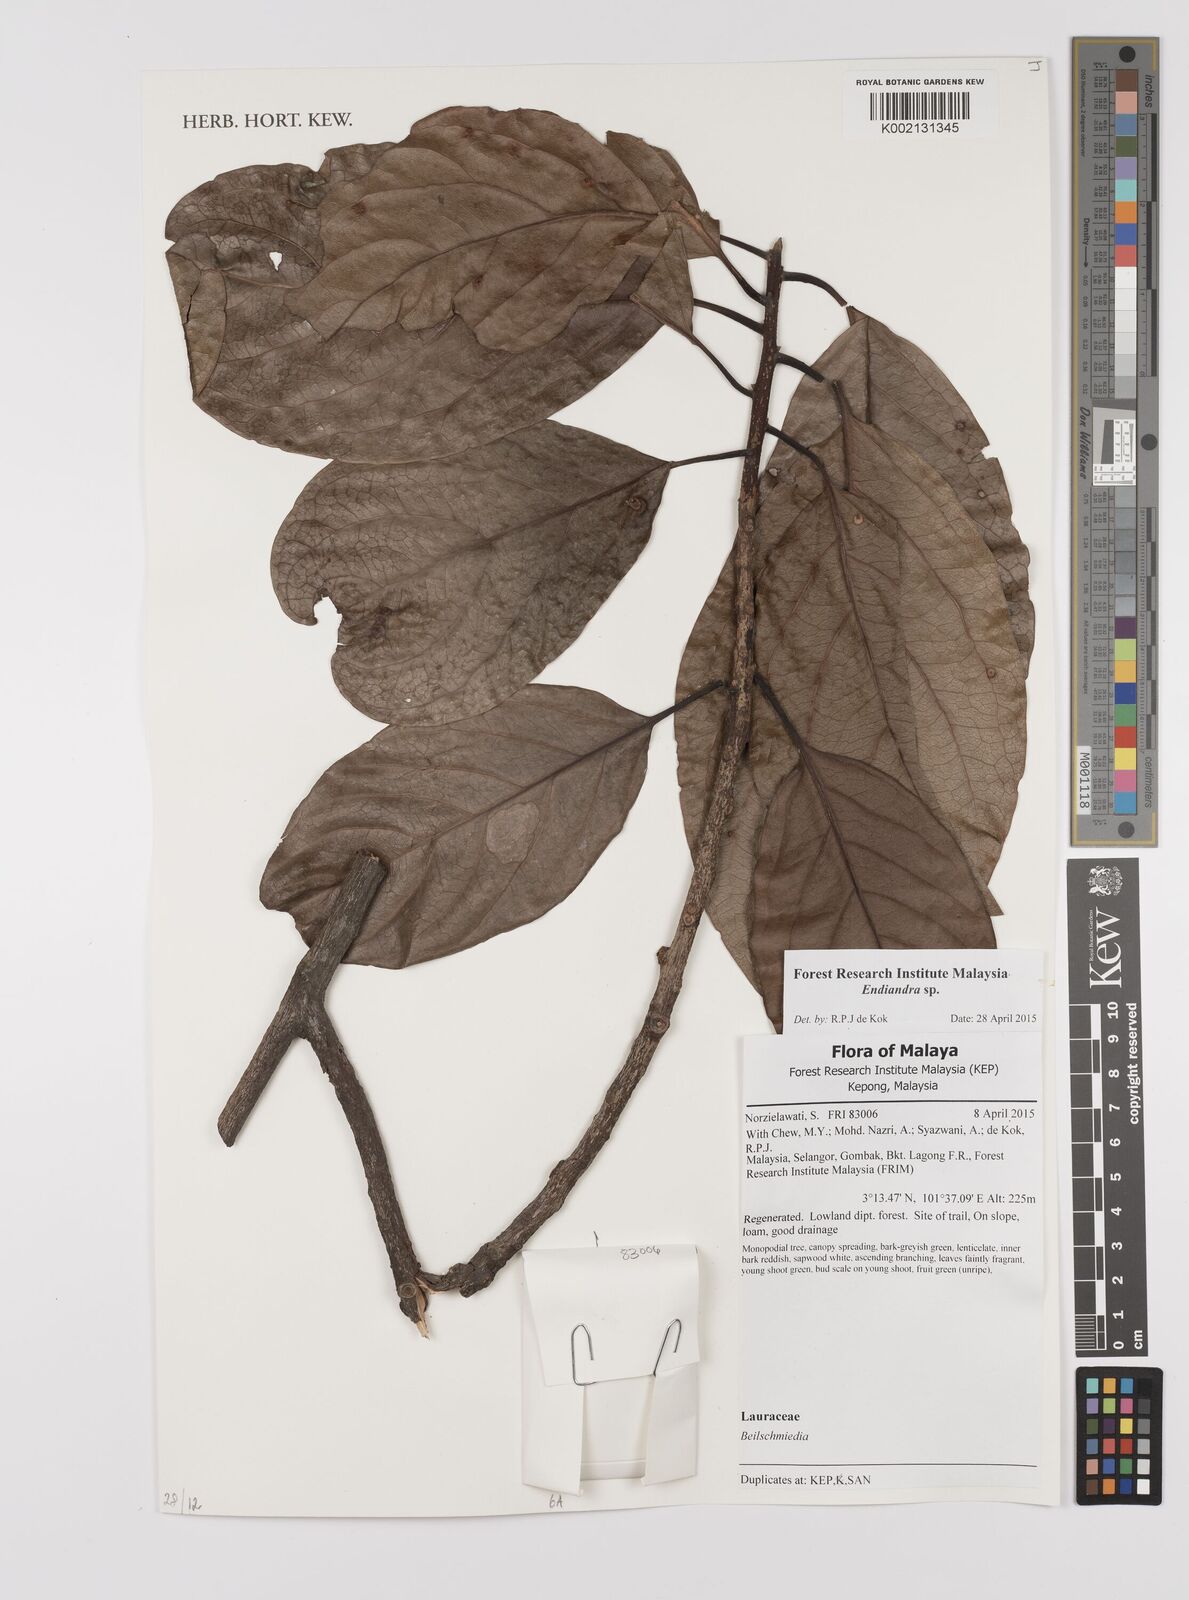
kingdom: Plantae
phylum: Tracheophyta
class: Magnoliopsida
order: Laurales
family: Lauraceae
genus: Endiandra
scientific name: Endiandra
